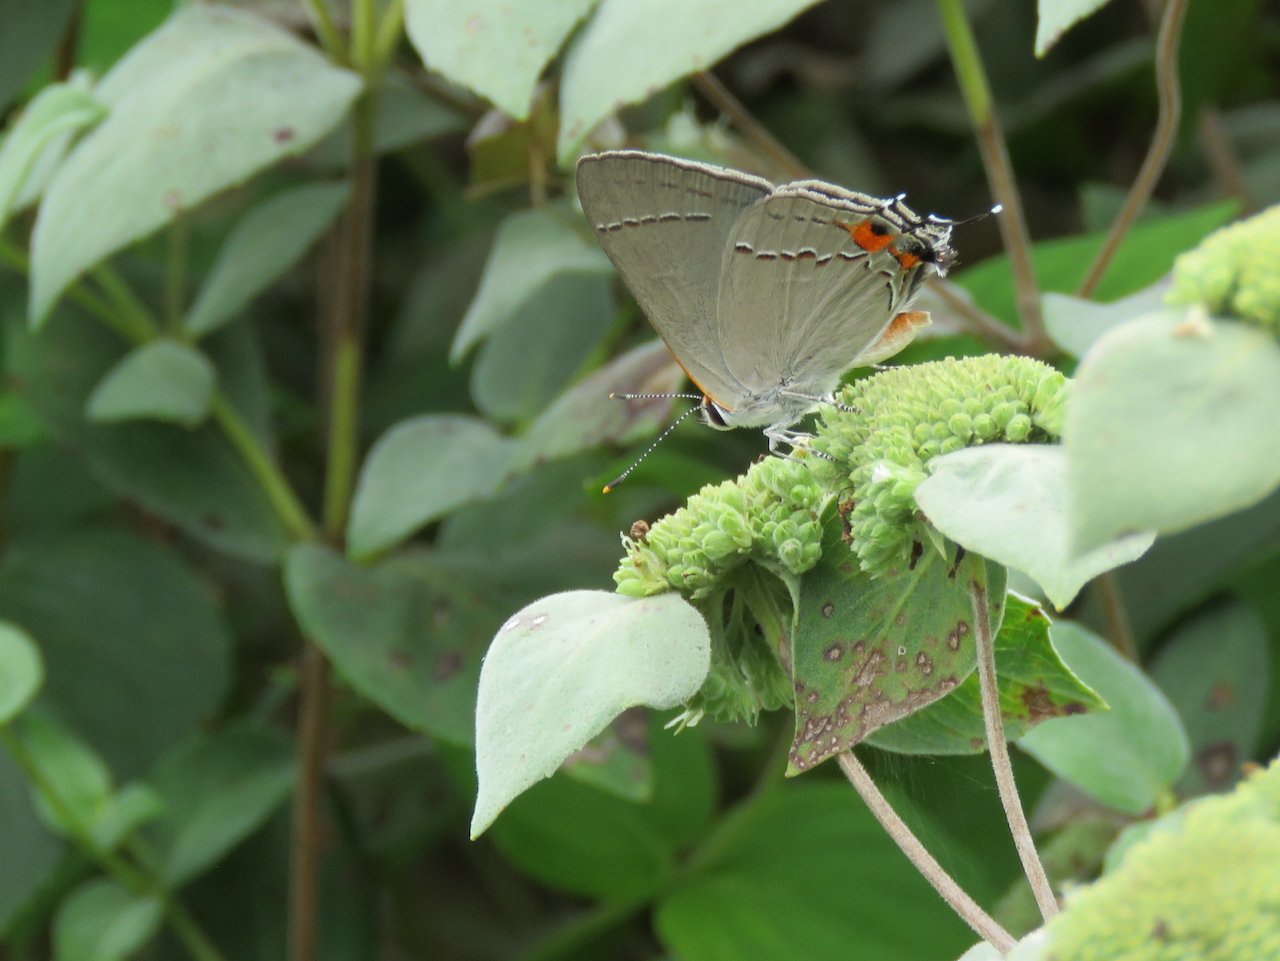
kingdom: Animalia
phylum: Arthropoda
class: Insecta
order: Lepidoptera
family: Lycaenidae
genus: Strymon
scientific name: Strymon melinus
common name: Gray Hairstreak
